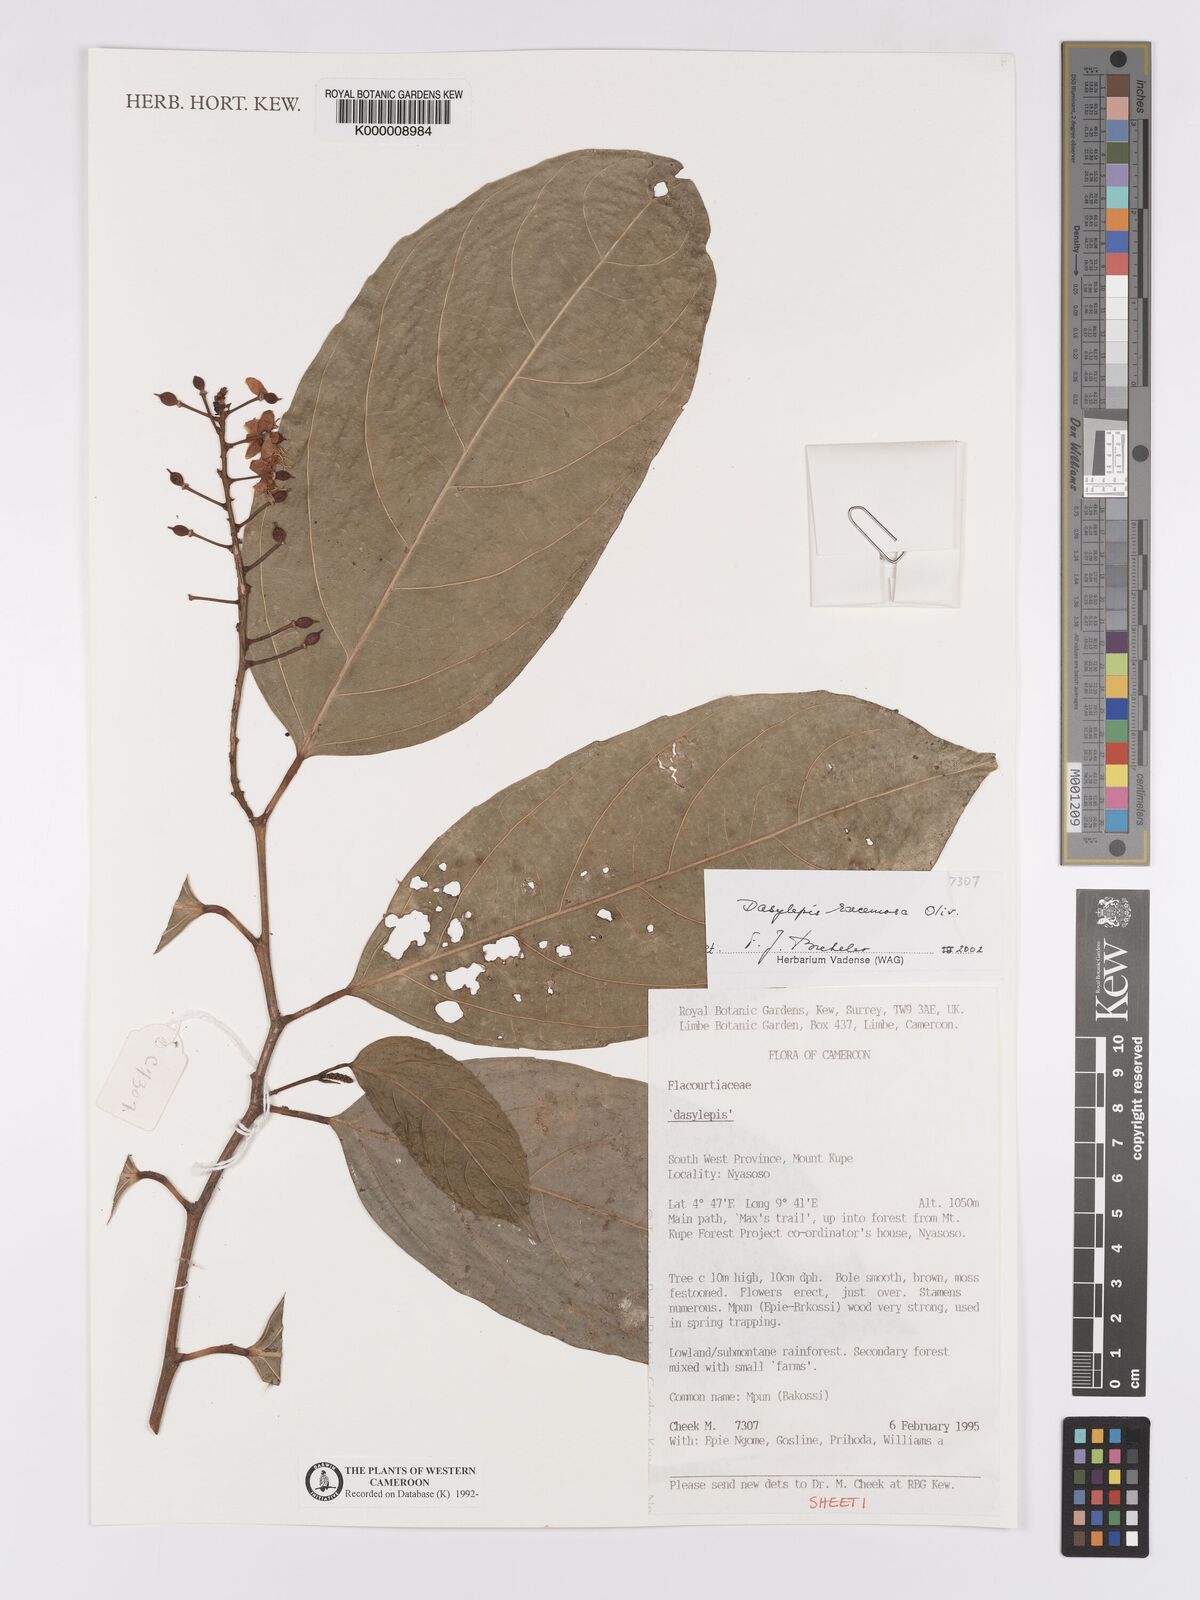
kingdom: Plantae
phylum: Tracheophyta
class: Magnoliopsida
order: Malpighiales
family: Achariaceae
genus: Dasylepis
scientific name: Dasylepis racemosa
